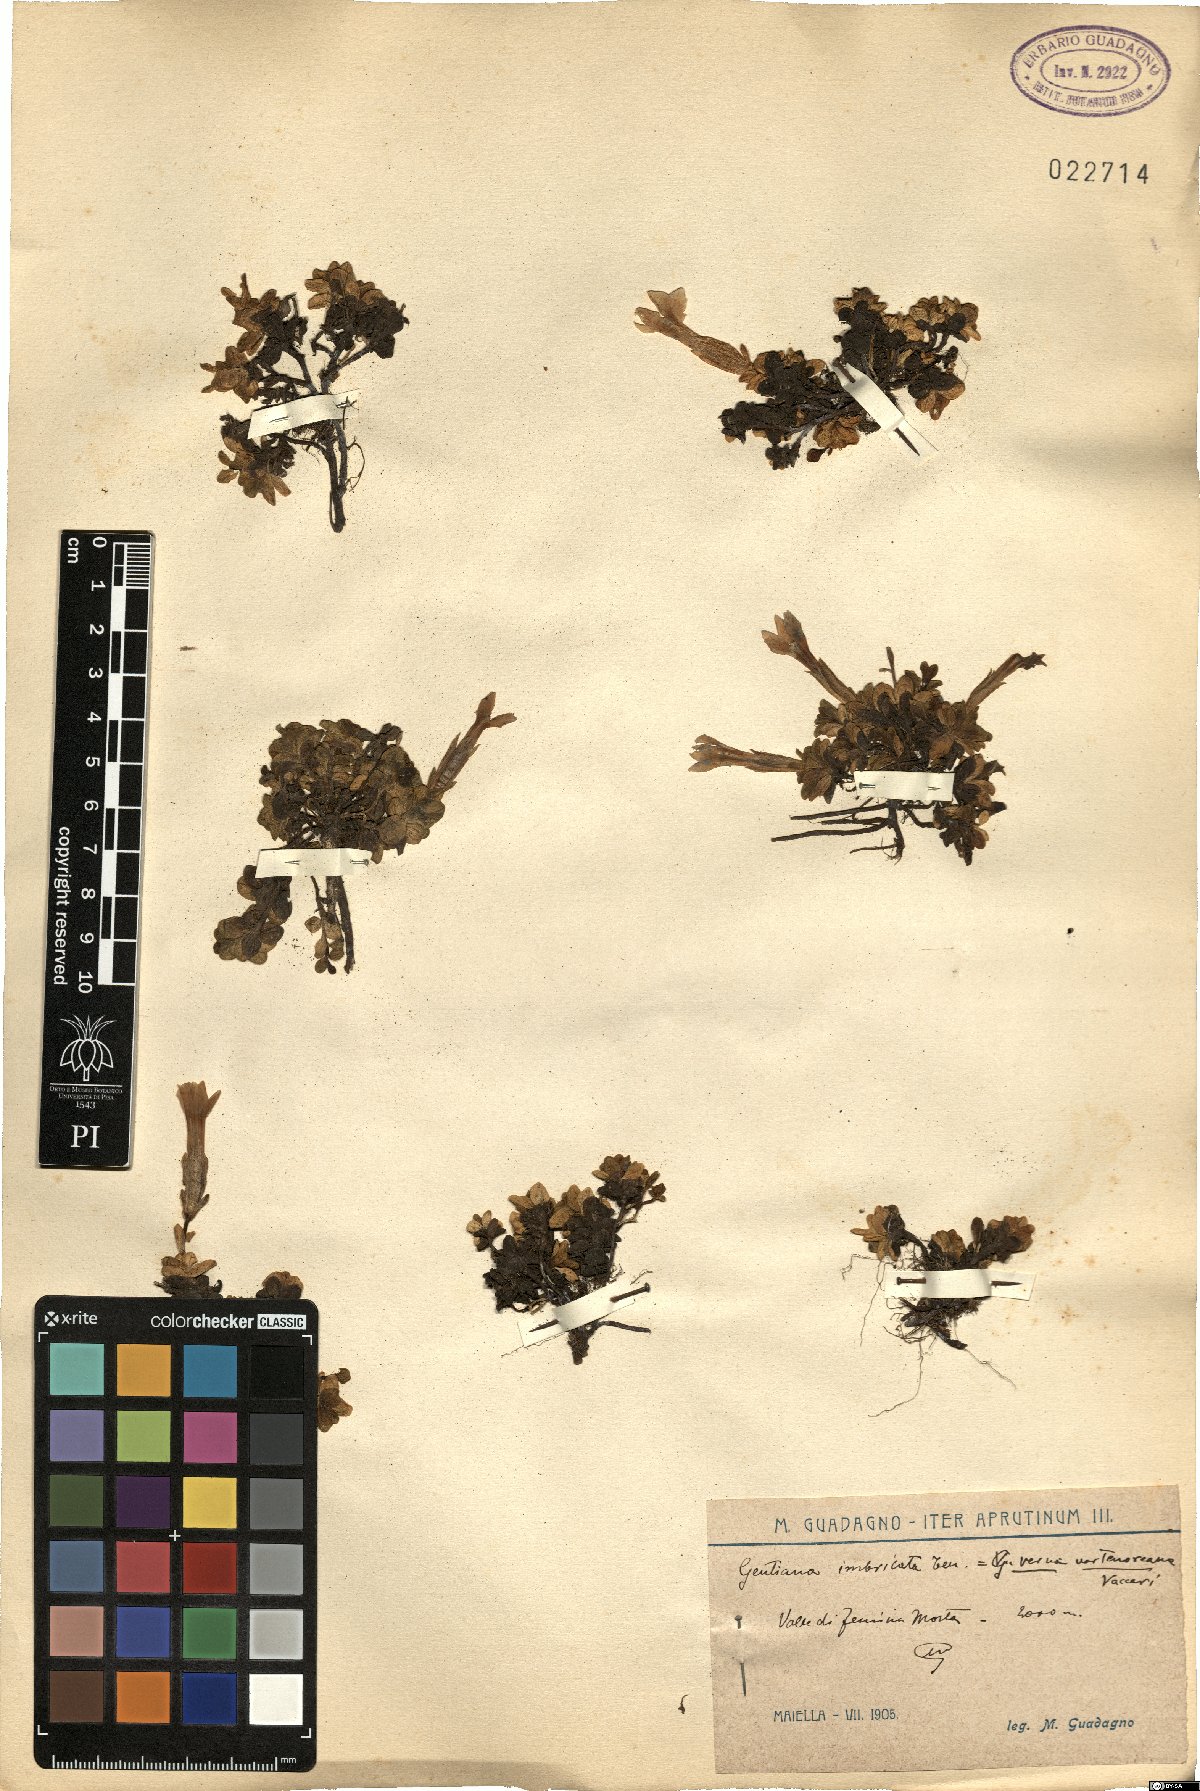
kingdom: Plantae
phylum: Tracheophyta
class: Magnoliopsida
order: Gentianales
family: Gentianaceae
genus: Gentiana
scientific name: Gentiana bavarica
